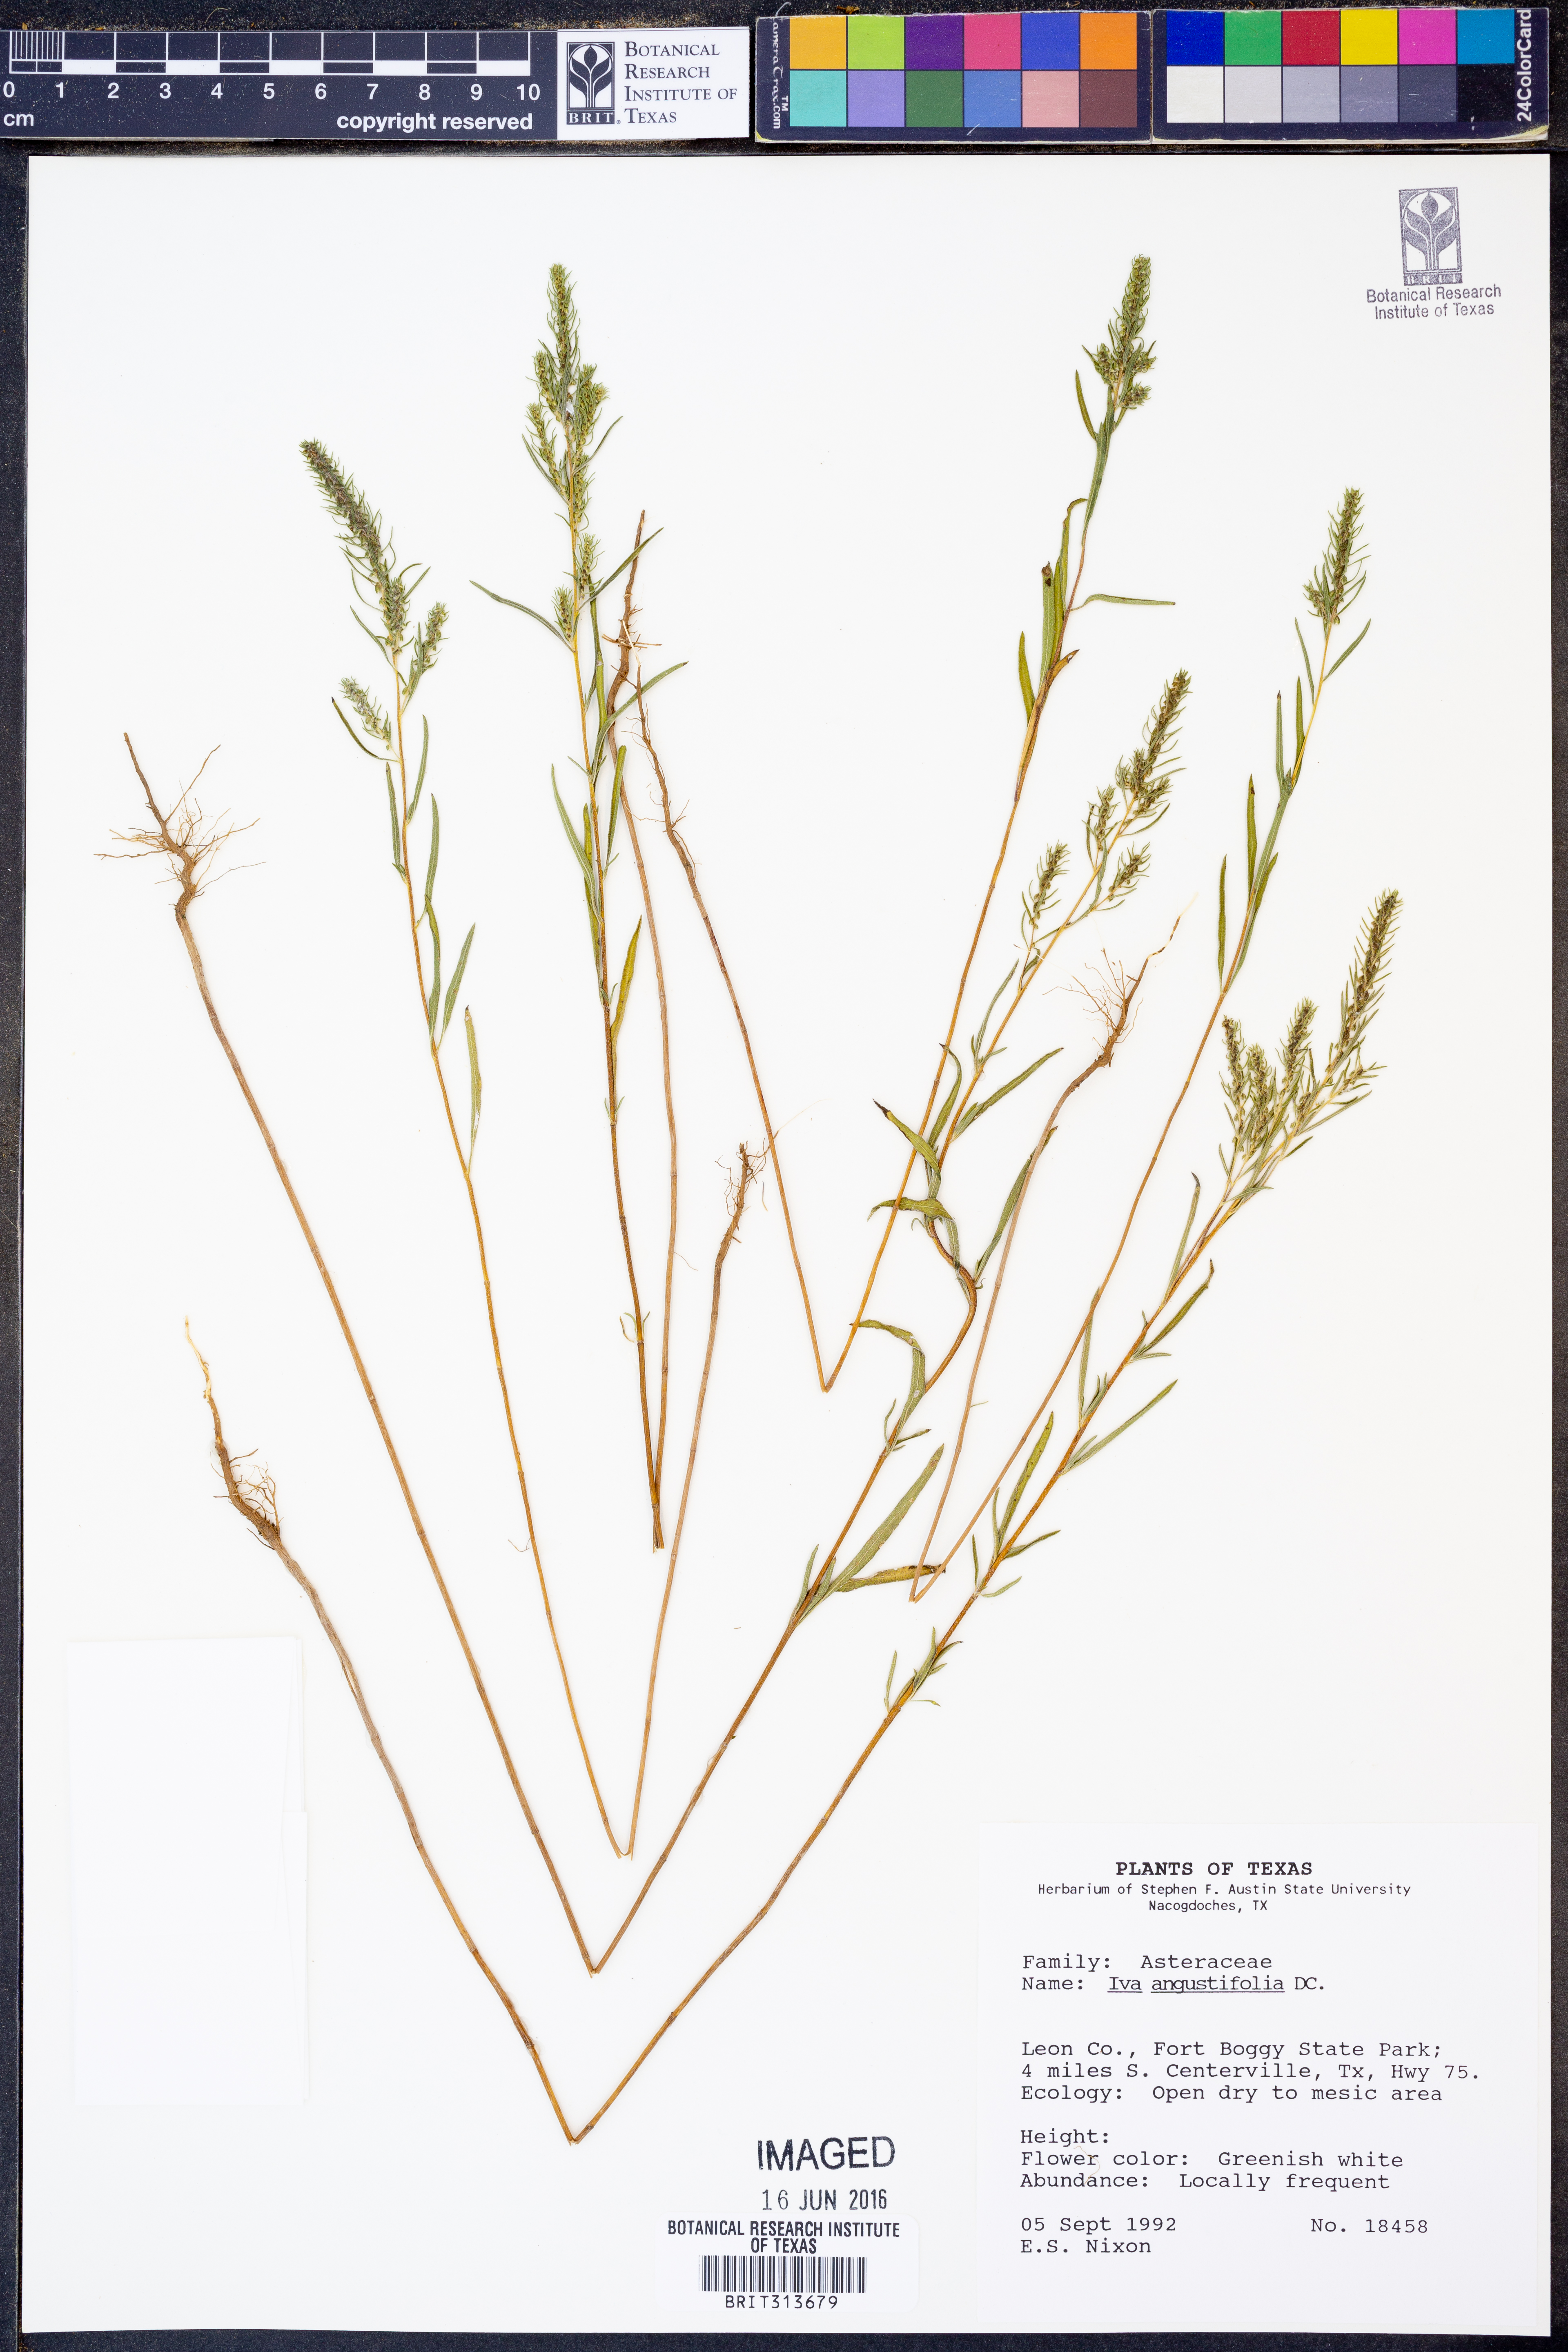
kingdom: Plantae
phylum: Tracheophyta
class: Magnoliopsida
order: Asterales
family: Asteraceae
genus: Iva
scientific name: Iva asperifolia
